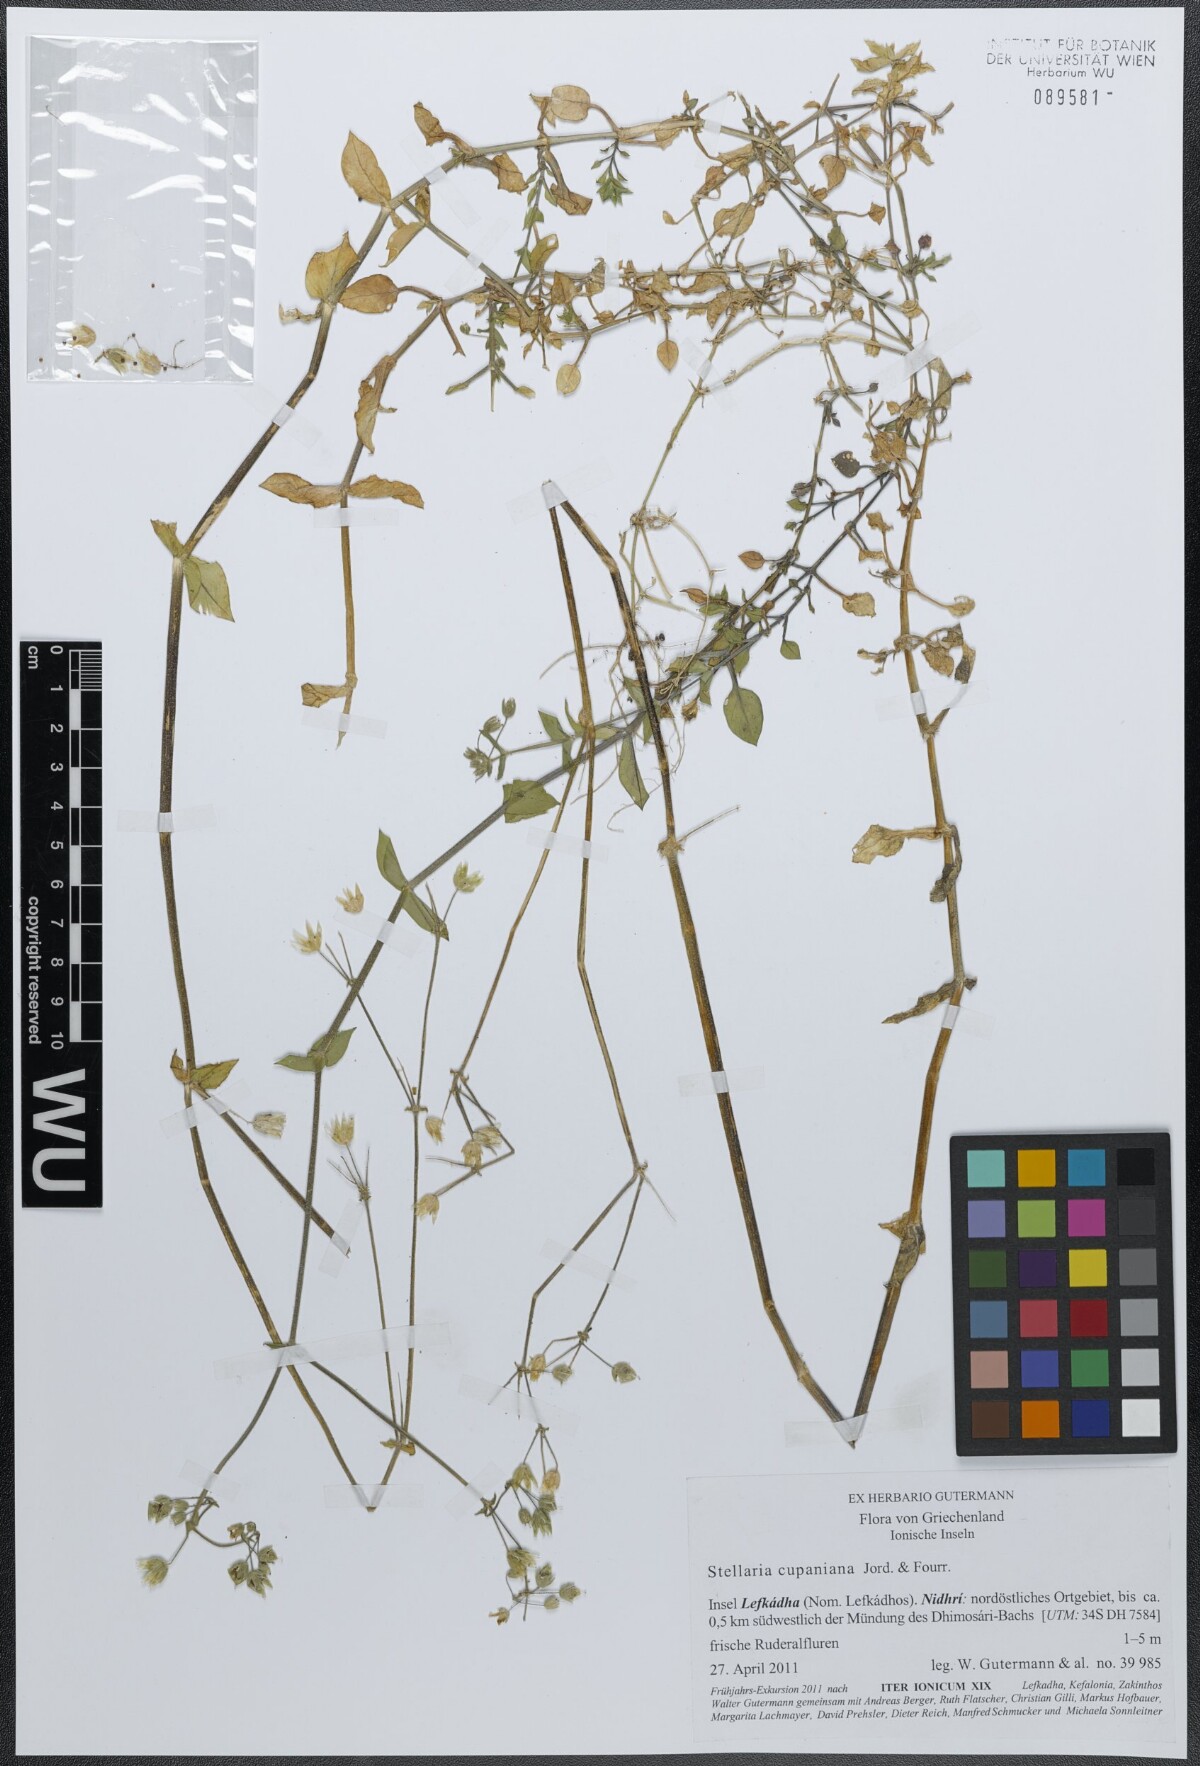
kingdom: Plantae
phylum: Tracheophyta
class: Magnoliopsida
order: Caryophyllales
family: Caryophyllaceae
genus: Stellaria
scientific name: Stellaria cupaniana
